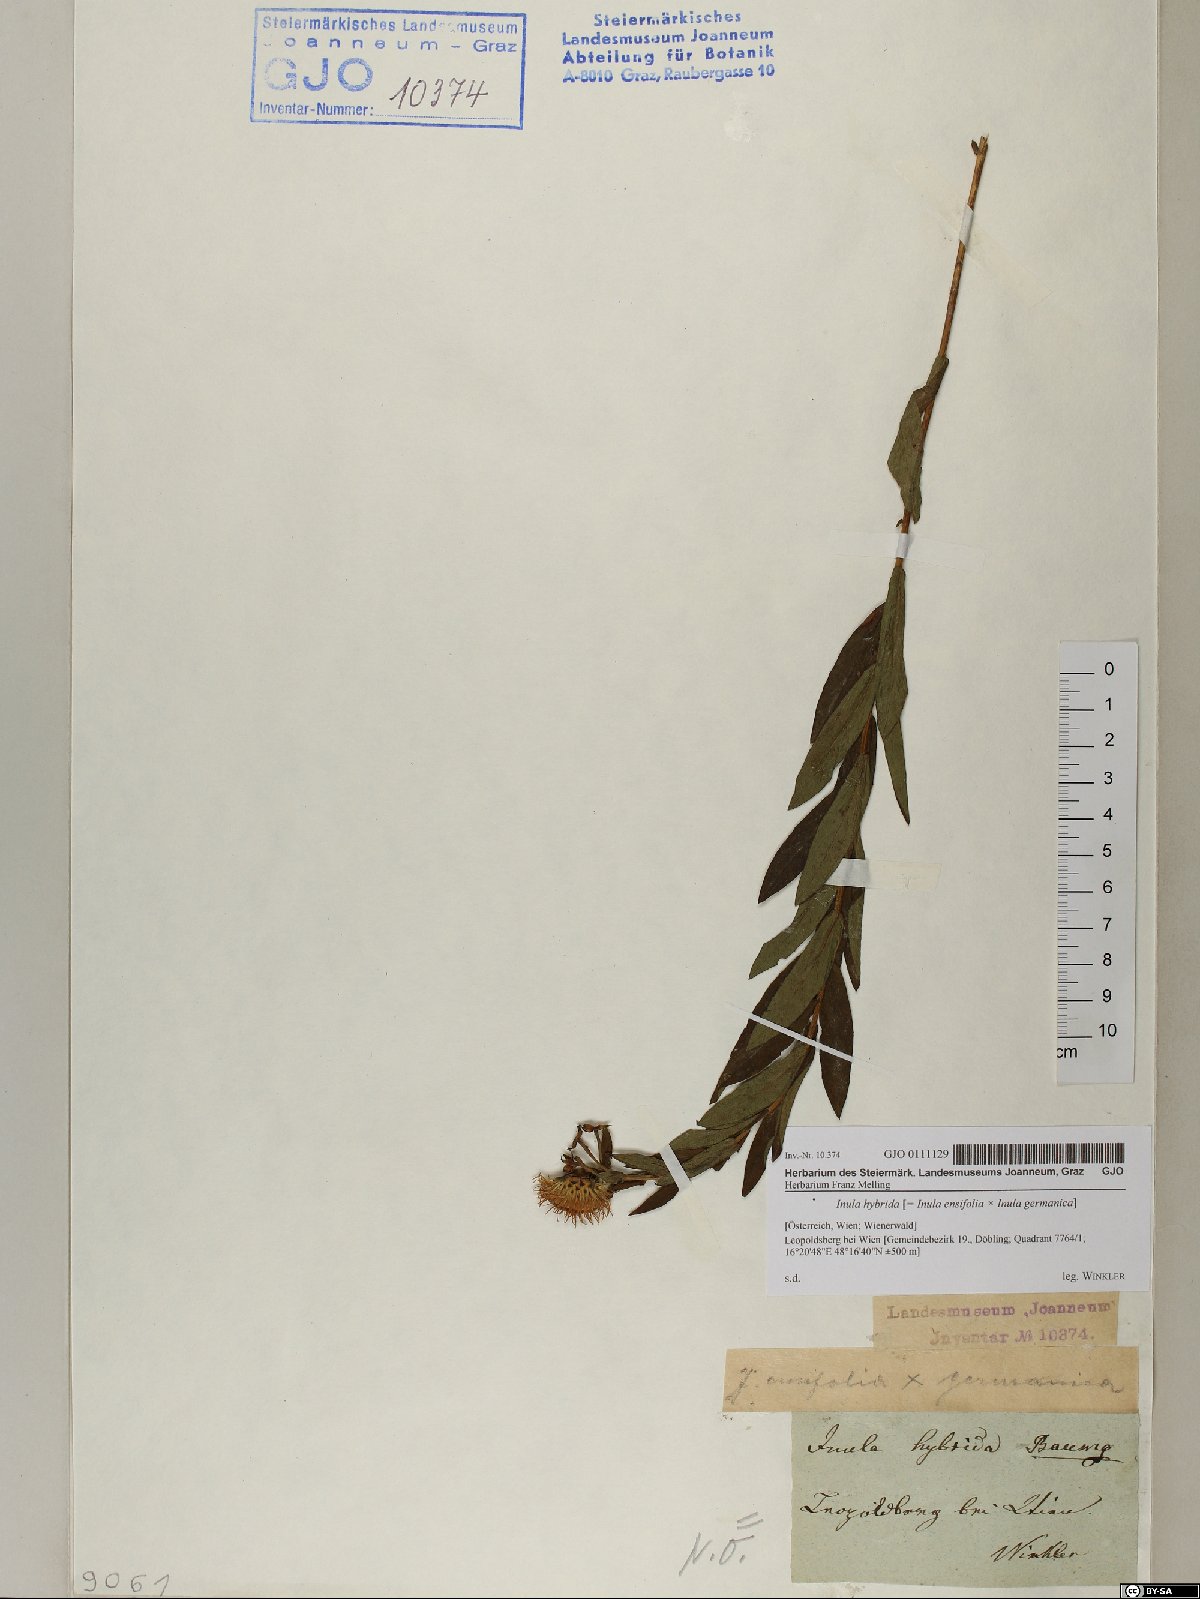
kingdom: Plantae
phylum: Tracheophyta
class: Magnoliopsida
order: Asterales
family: Asteraceae
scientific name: Asteraceae
